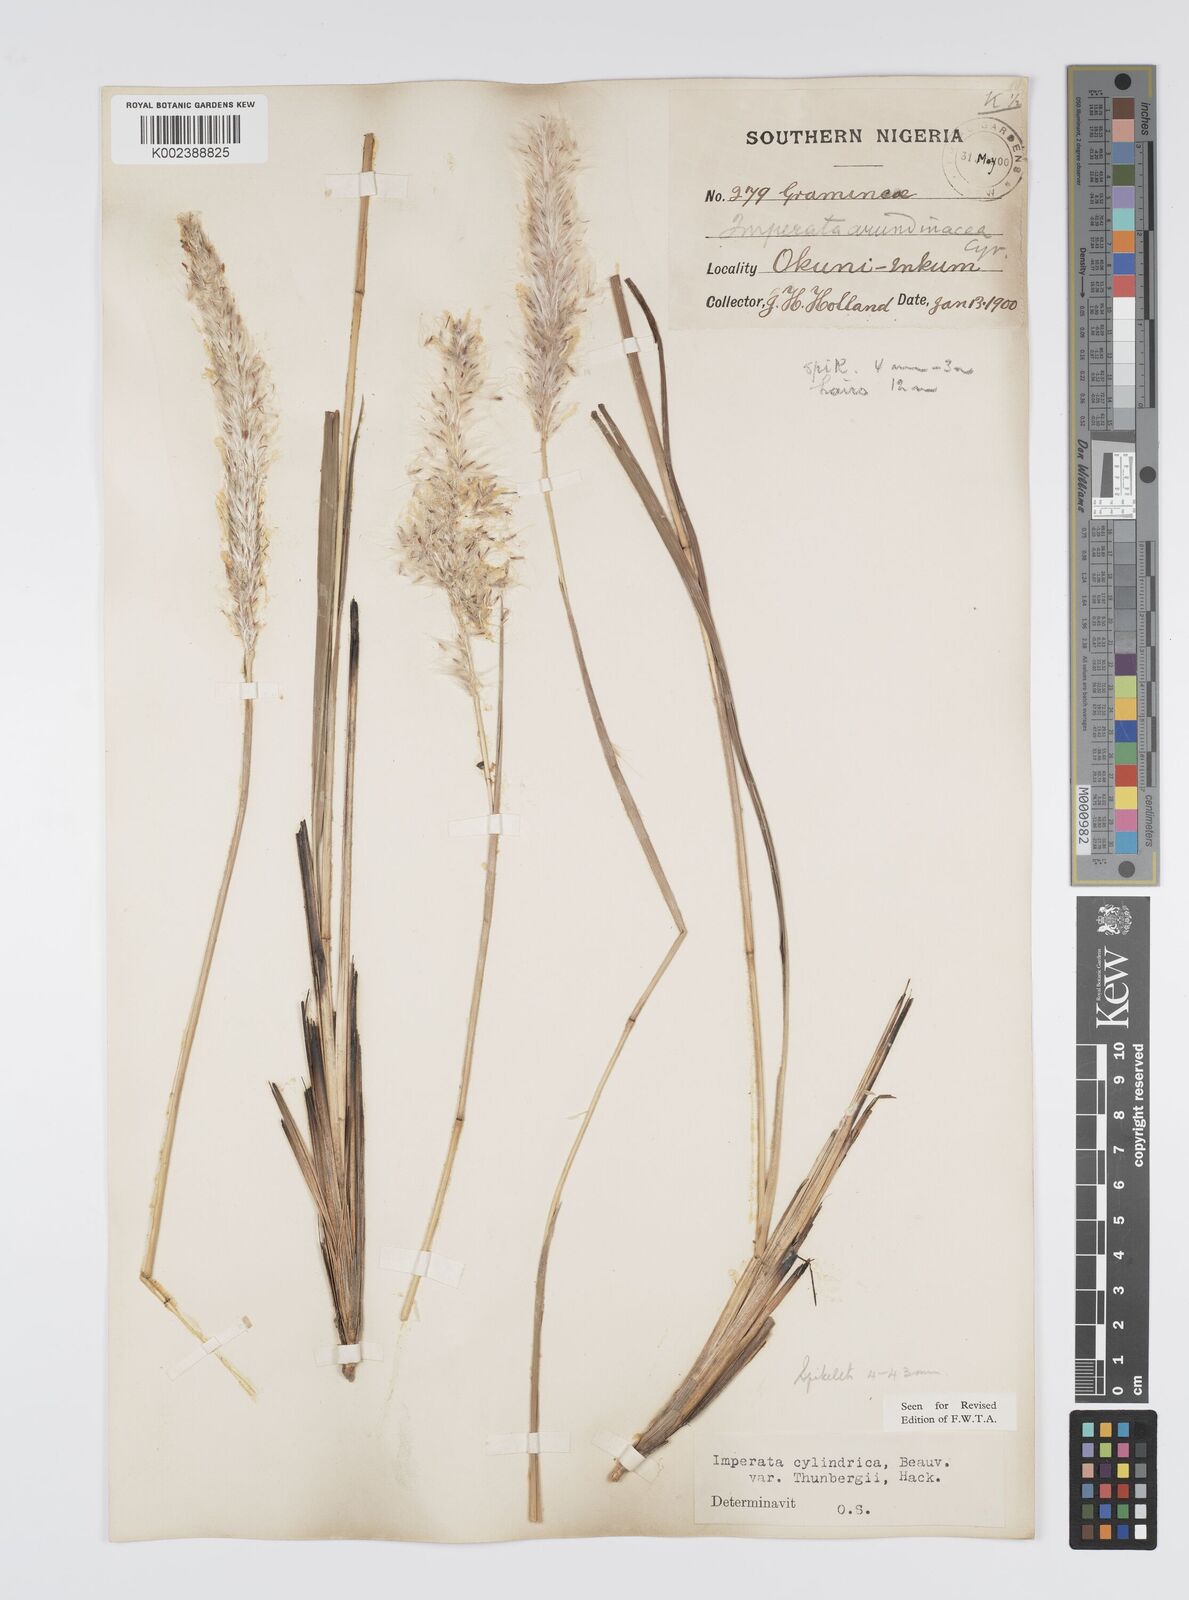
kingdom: Plantae
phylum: Tracheophyta
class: Liliopsida
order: Poales
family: Poaceae
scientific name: Poaceae
